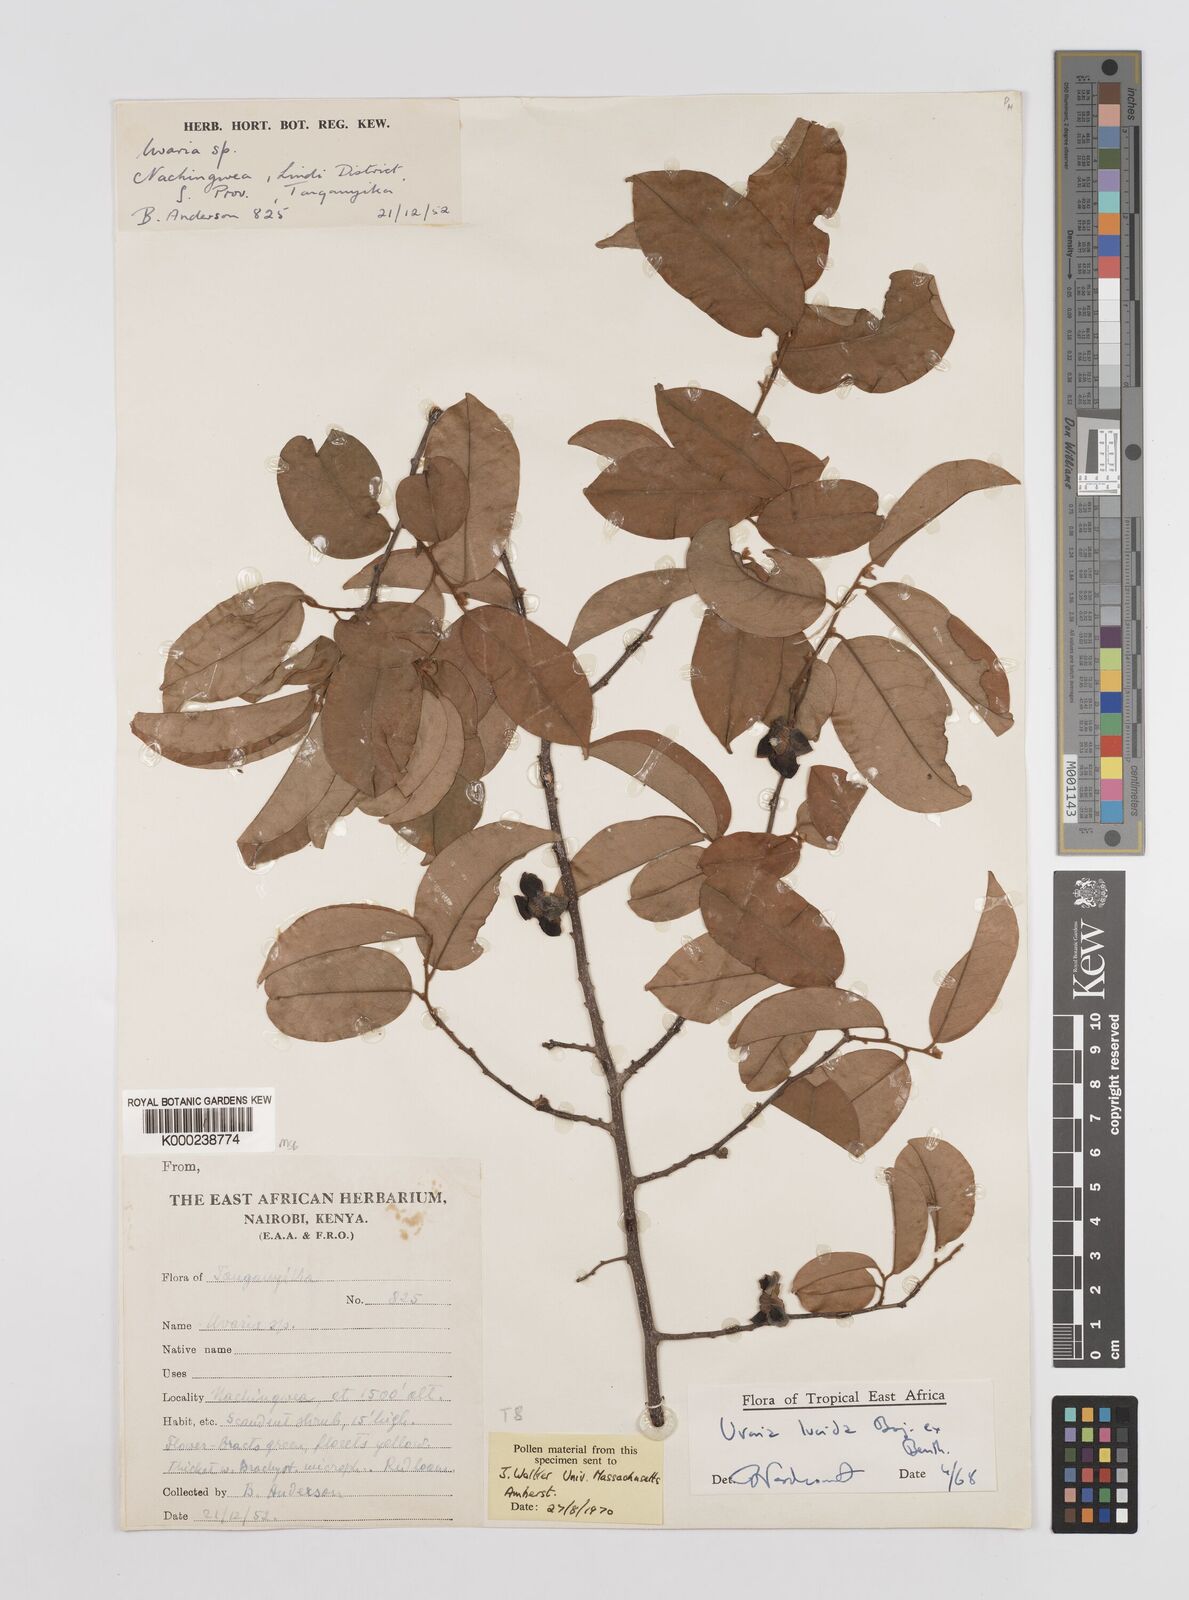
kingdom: Plantae
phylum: Tracheophyta
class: Magnoliopsida
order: Magnoliales
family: Annonaceae
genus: Uvaria
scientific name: Uvaria lucida
